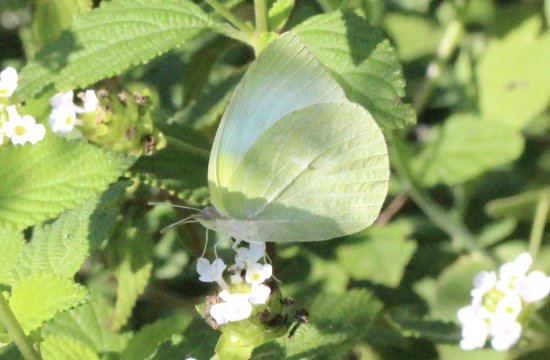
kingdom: Animalia
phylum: Arthropoda
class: Insecta
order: Lepidoptera
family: Pieridae
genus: Kricogonia
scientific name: Kricogonia lyside
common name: Lyside Sulphur
